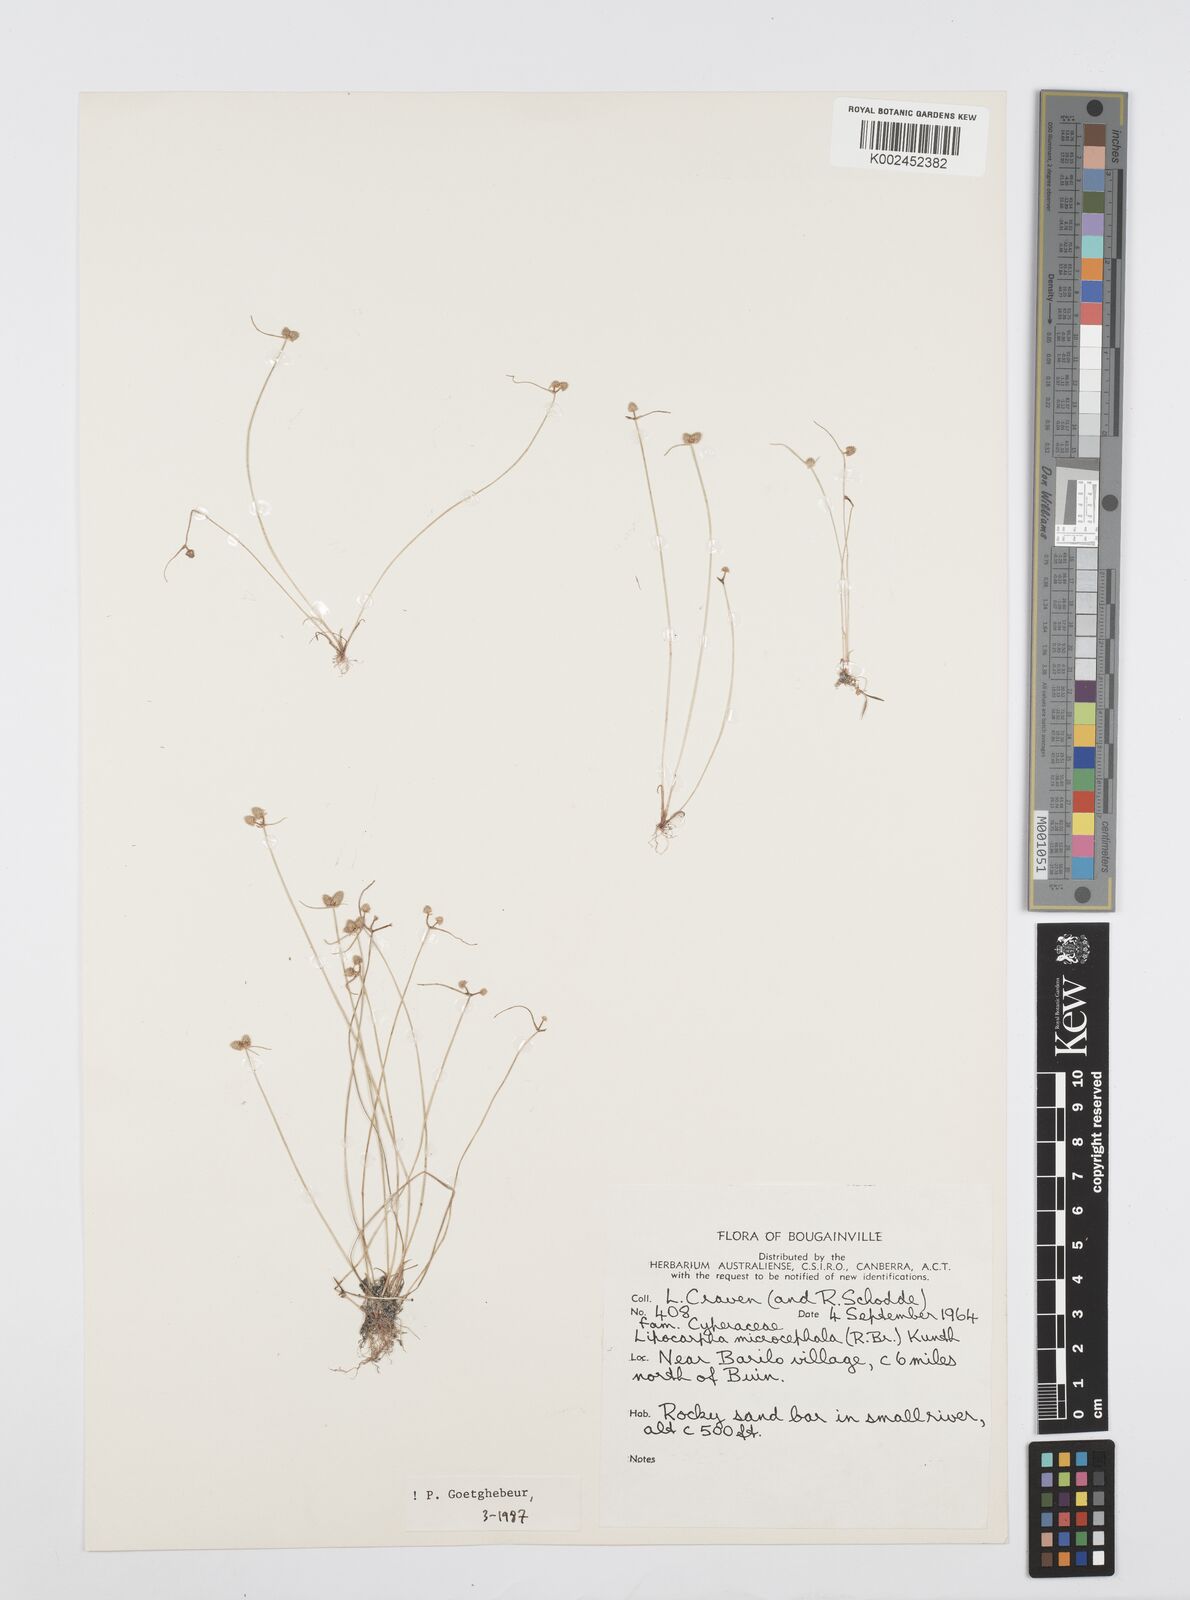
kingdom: Plantae
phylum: Tracheophyta
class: Liliopsida
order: Poales
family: Cyperaceae
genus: Cyperus
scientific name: Cyperus microcephalus
